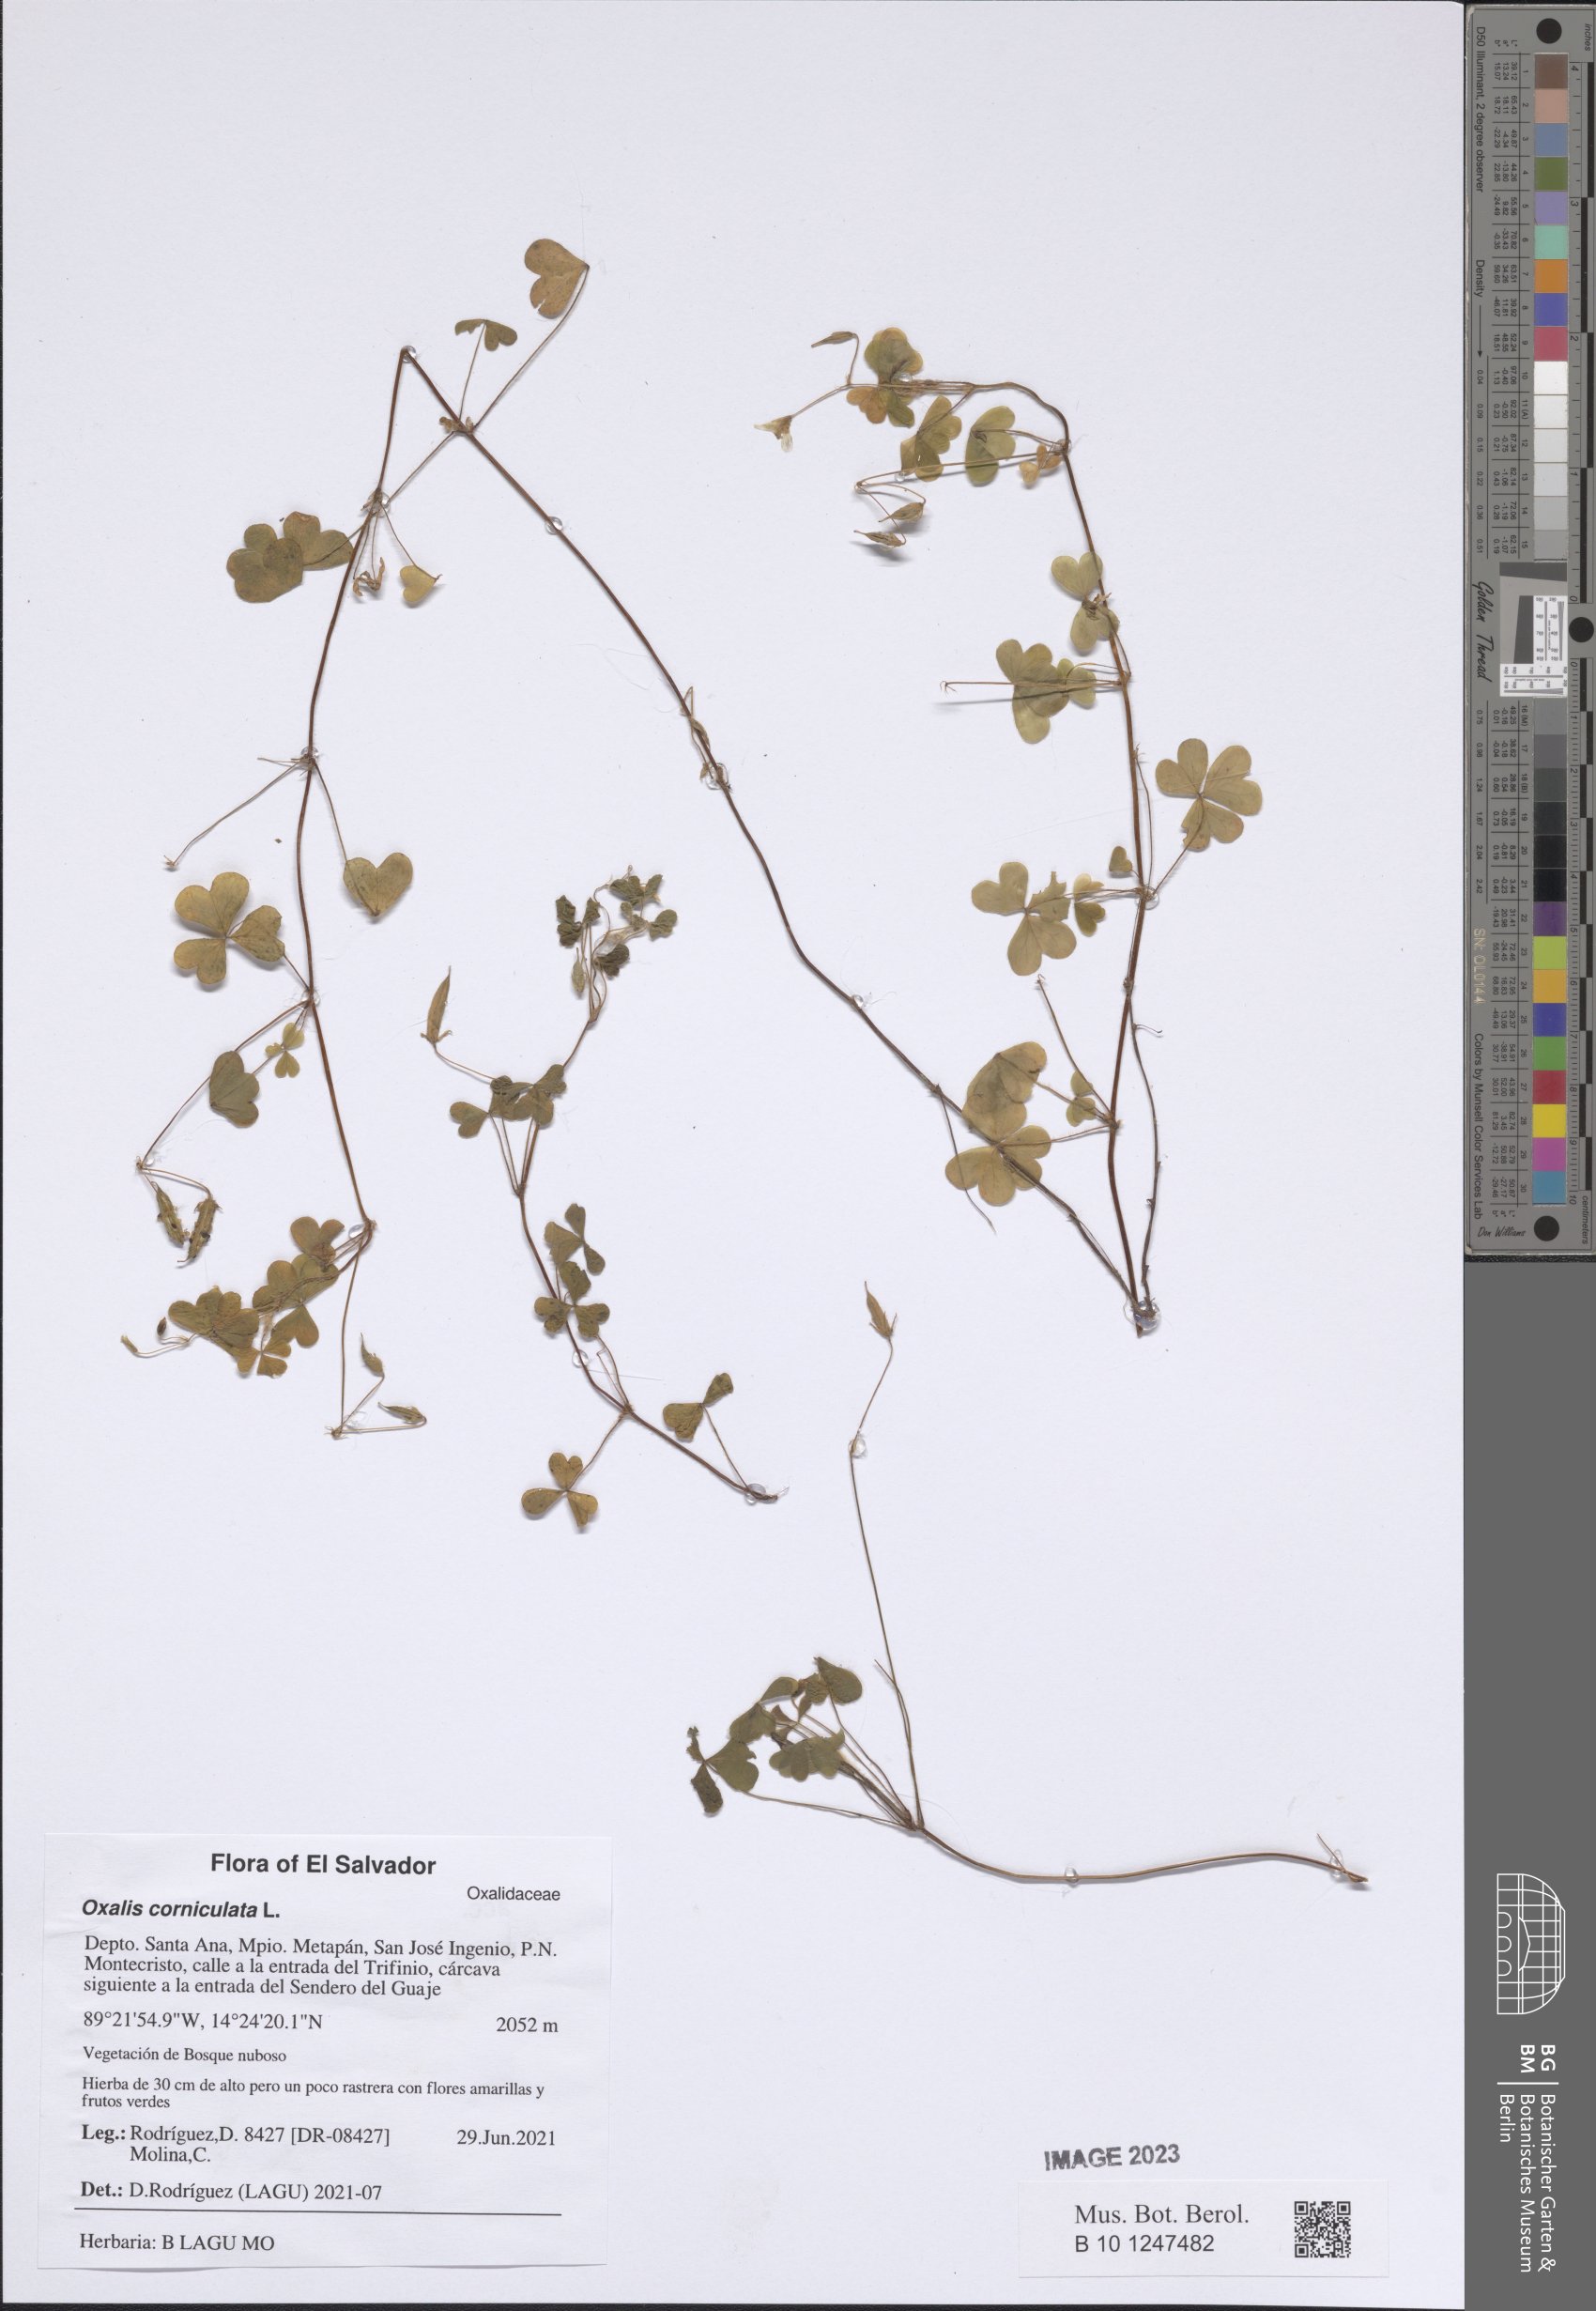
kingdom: Plantae
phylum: Tracheophyta
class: Magnoliopsida
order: Oxalidales
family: Oxalidaceae
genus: Oxalis
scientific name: Oxalis corniculata
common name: Procumbent yellow-sorrel
